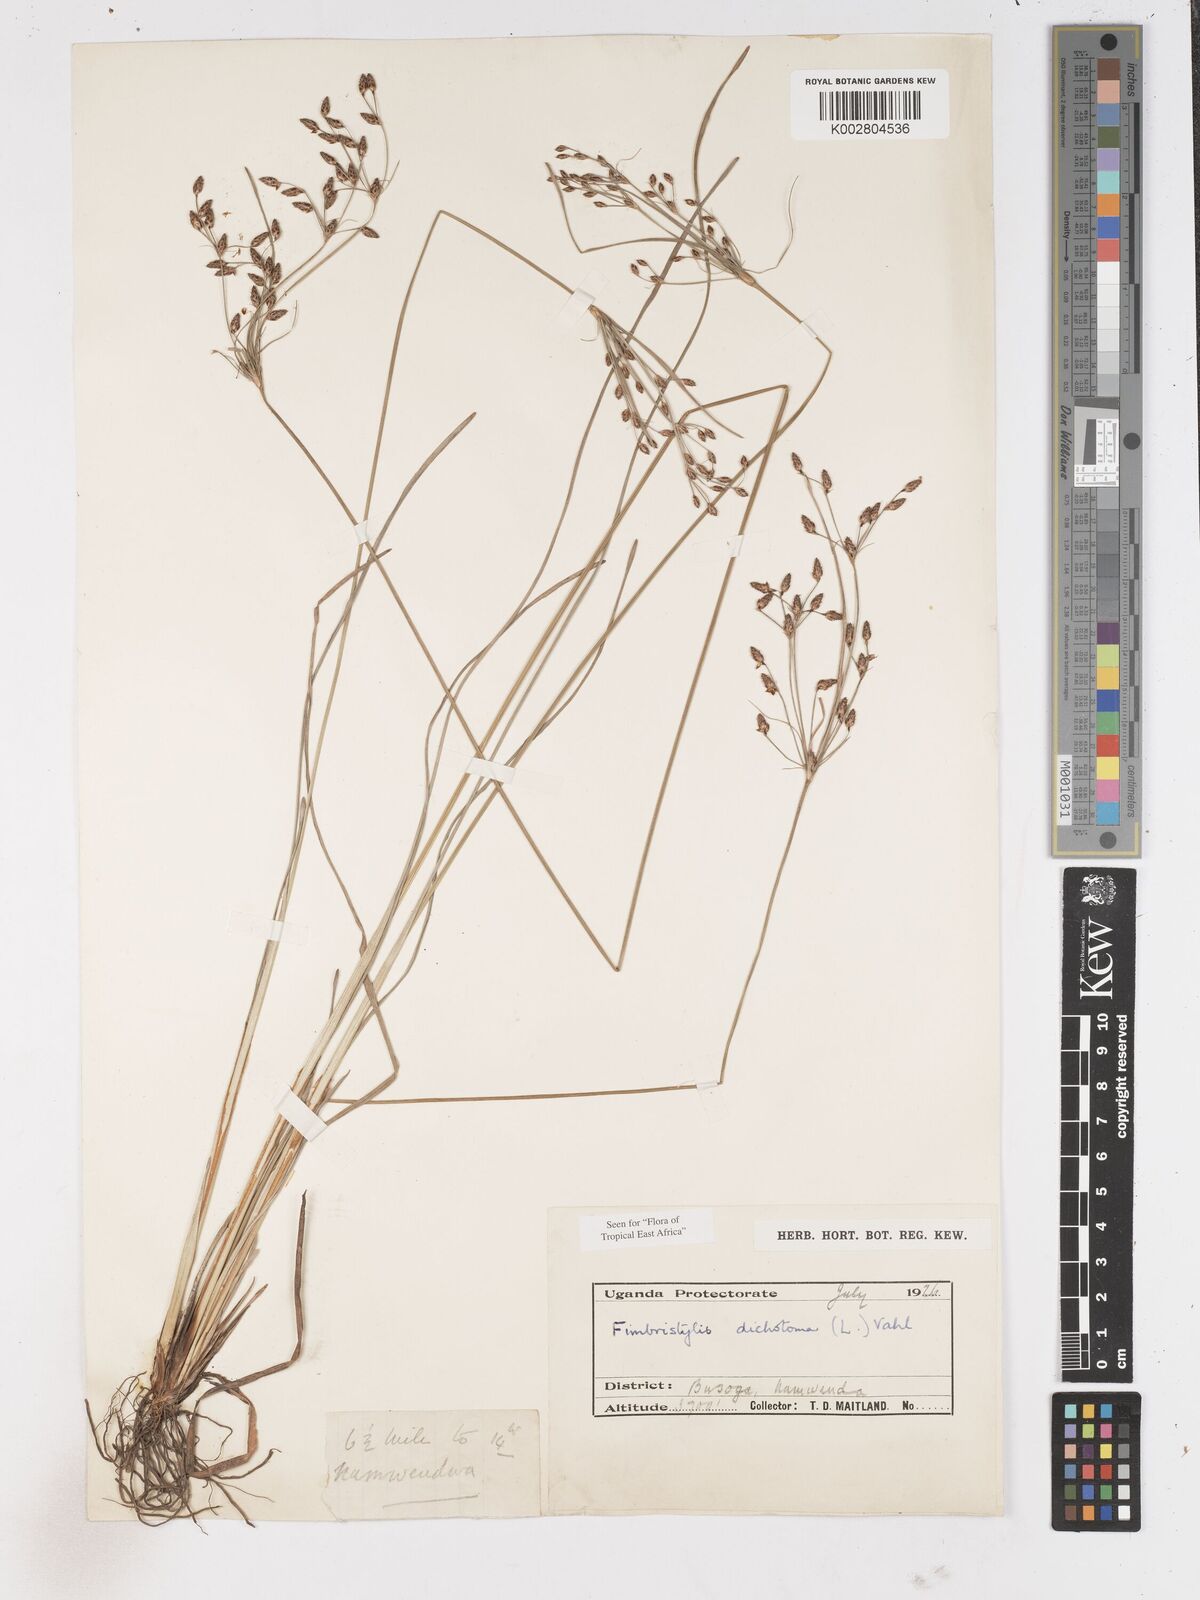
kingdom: Plantae
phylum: Tracheophyta
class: Liliopsida
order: Poales
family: Cyperaceae
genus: Fimbristylis
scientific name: Fimbristylis dichotoma
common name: Forked fimbry
